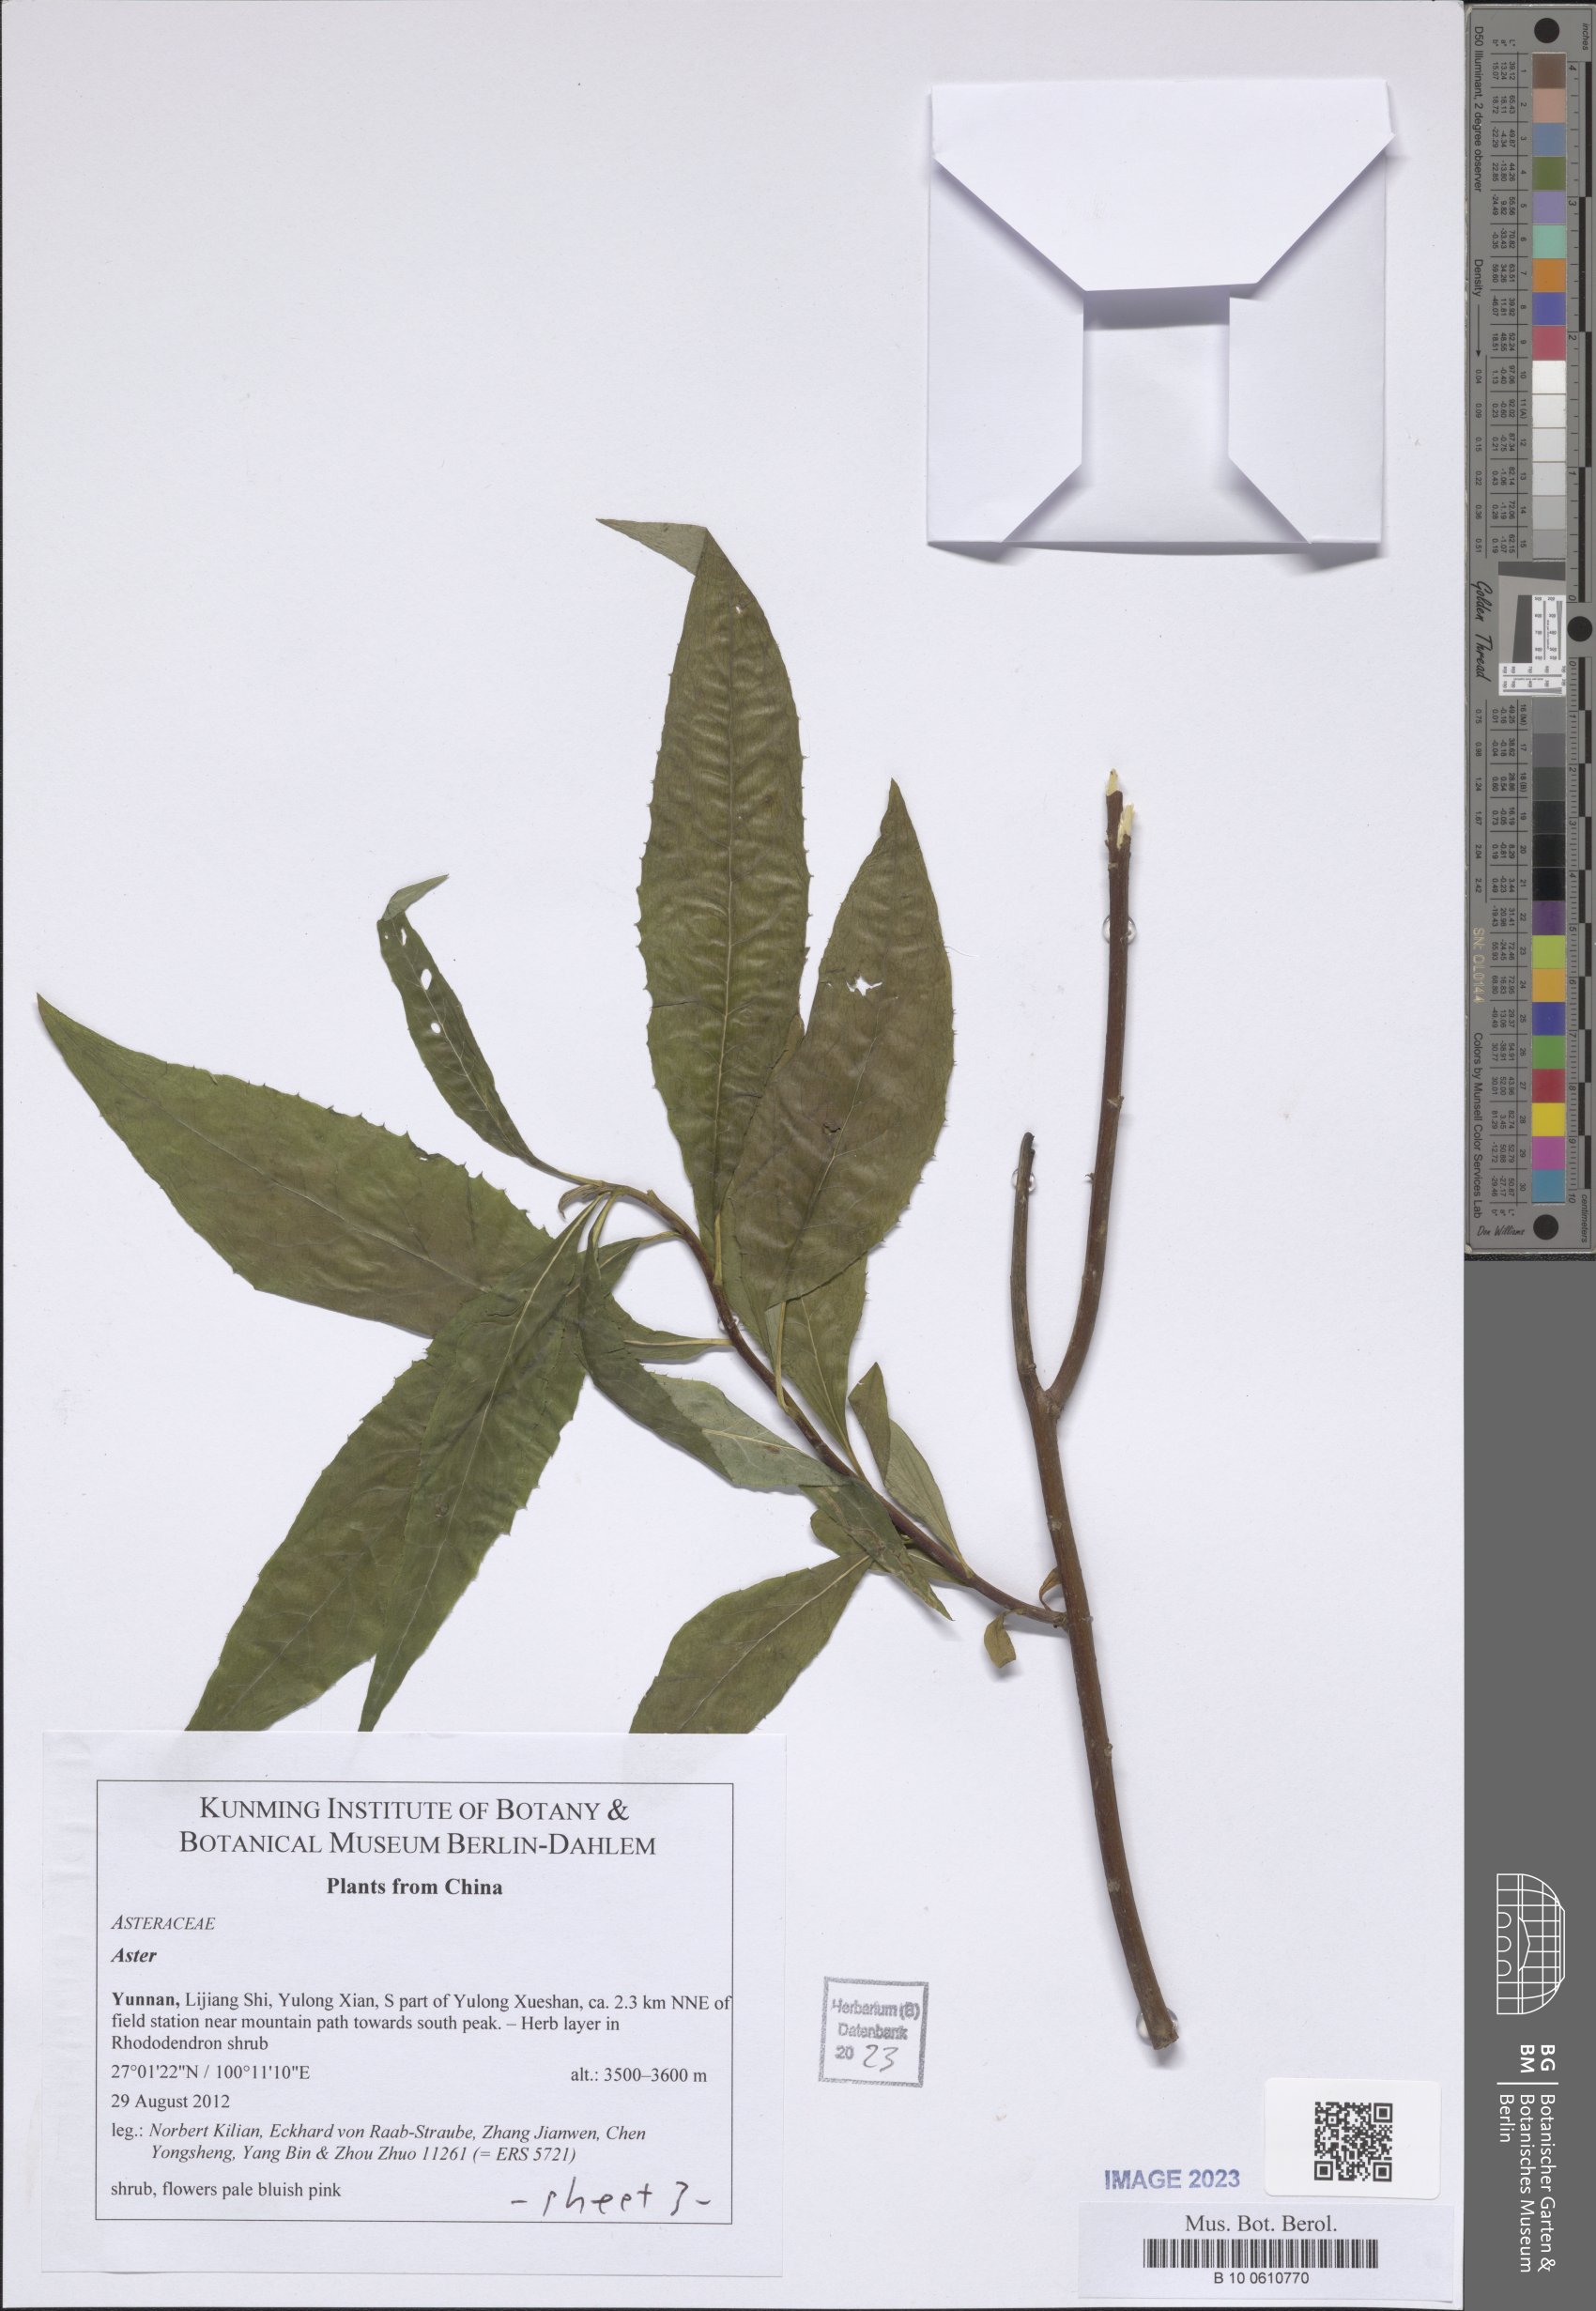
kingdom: Plantae
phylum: Tracheophyta
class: Magnoliopsida
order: Asterales
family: Asteraceae
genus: Aster
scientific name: Aster
